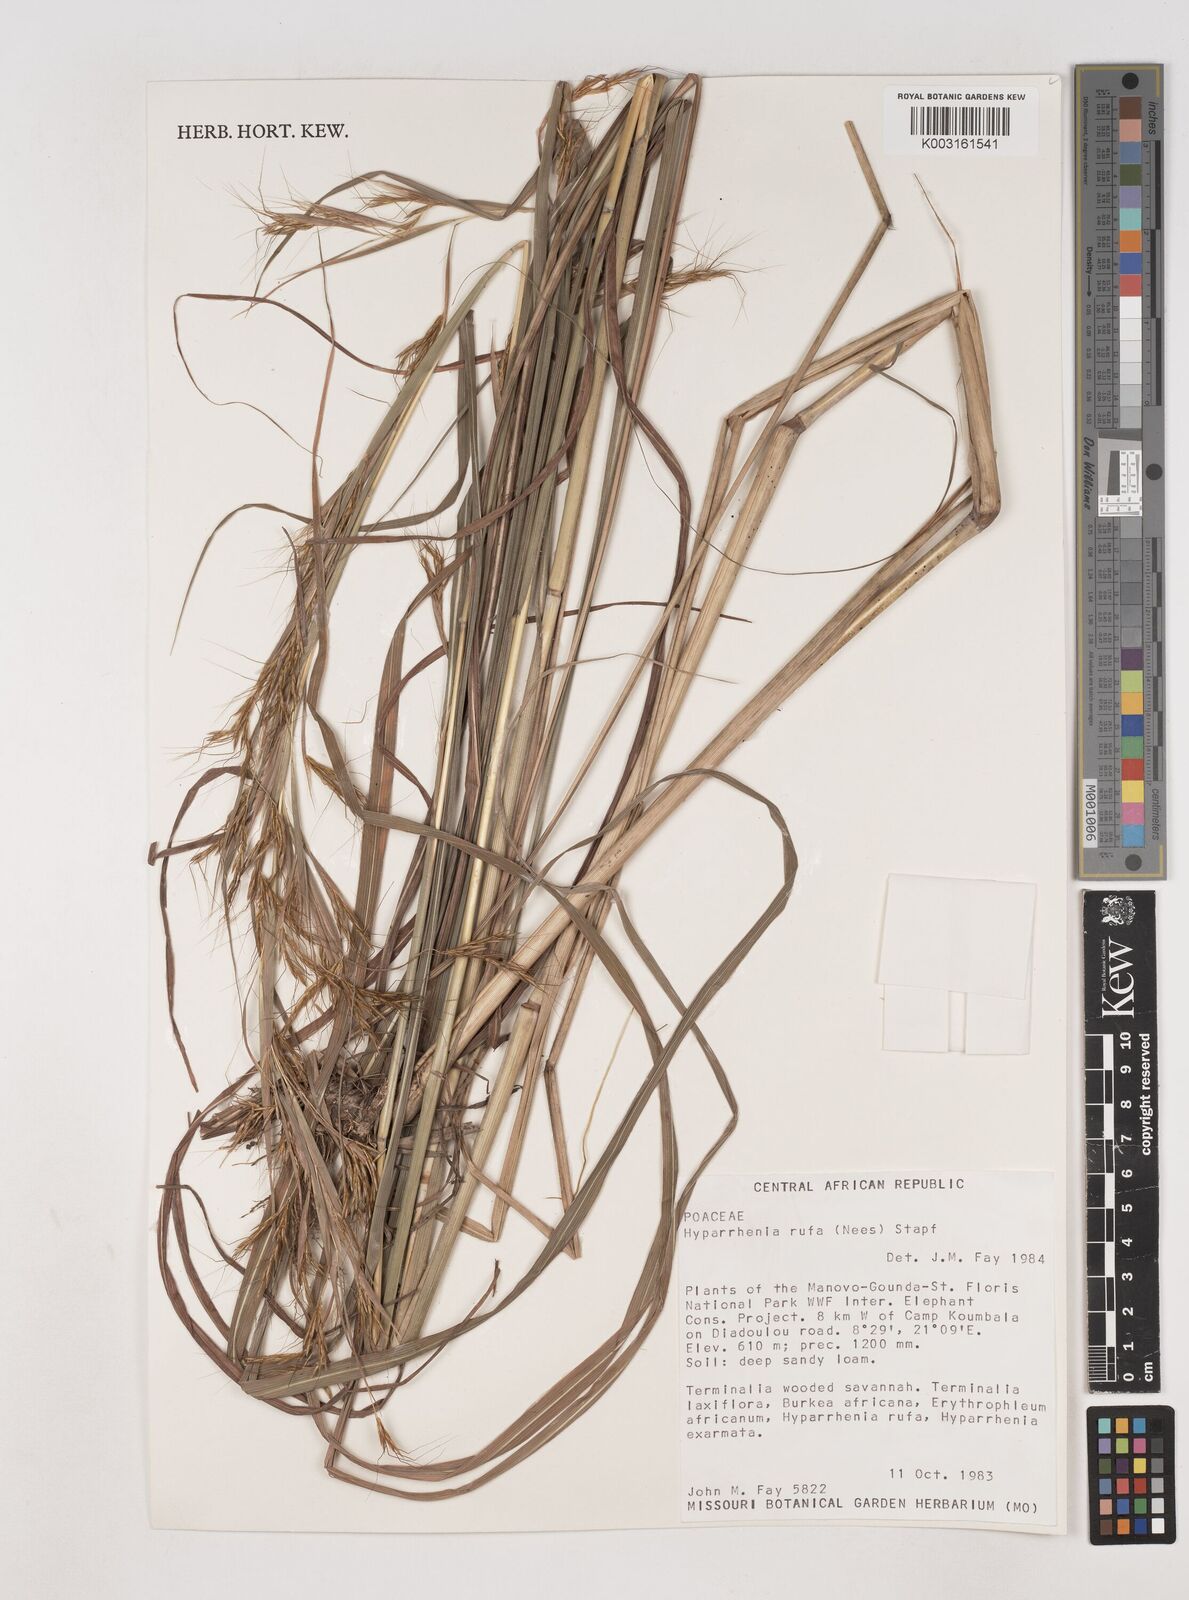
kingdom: Plantae
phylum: Tracheophyta
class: Liliopsida
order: Poales
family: Poaceae
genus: Hyparrhenia
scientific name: Hyparrhenia rufa
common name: Jaraguagrass
